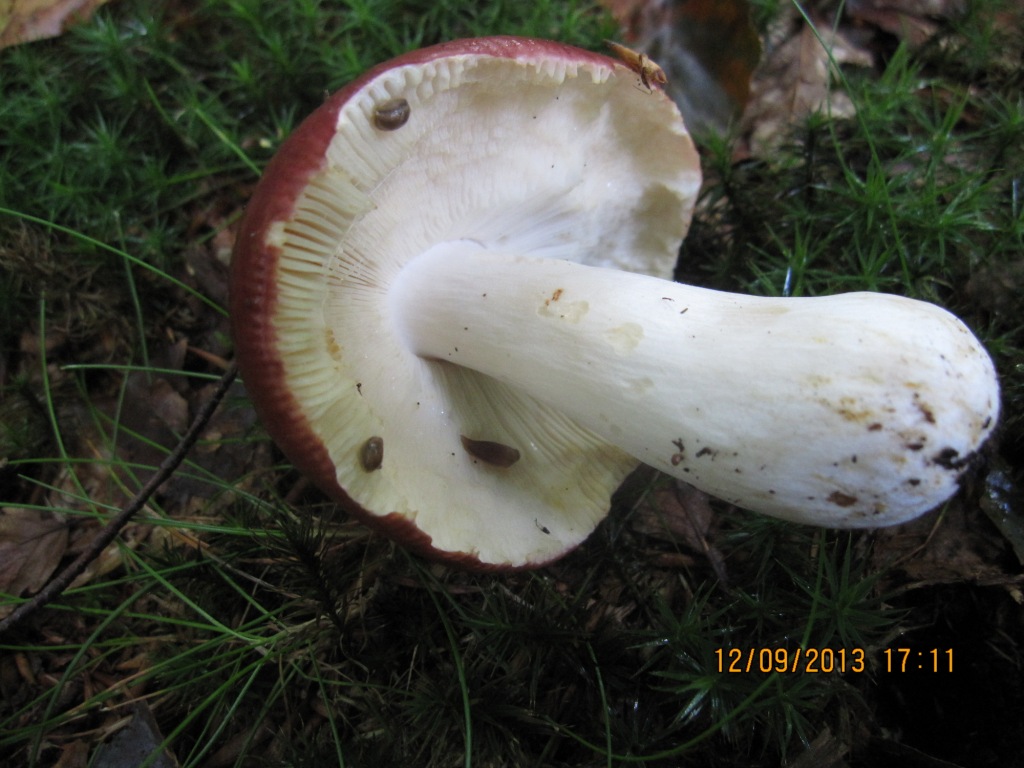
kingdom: Fungi
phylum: Basidiomycota
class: Agaricomycetes
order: Russulales
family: Russulaceae
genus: Russula
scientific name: Russula melliolens
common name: honning-skørhat
